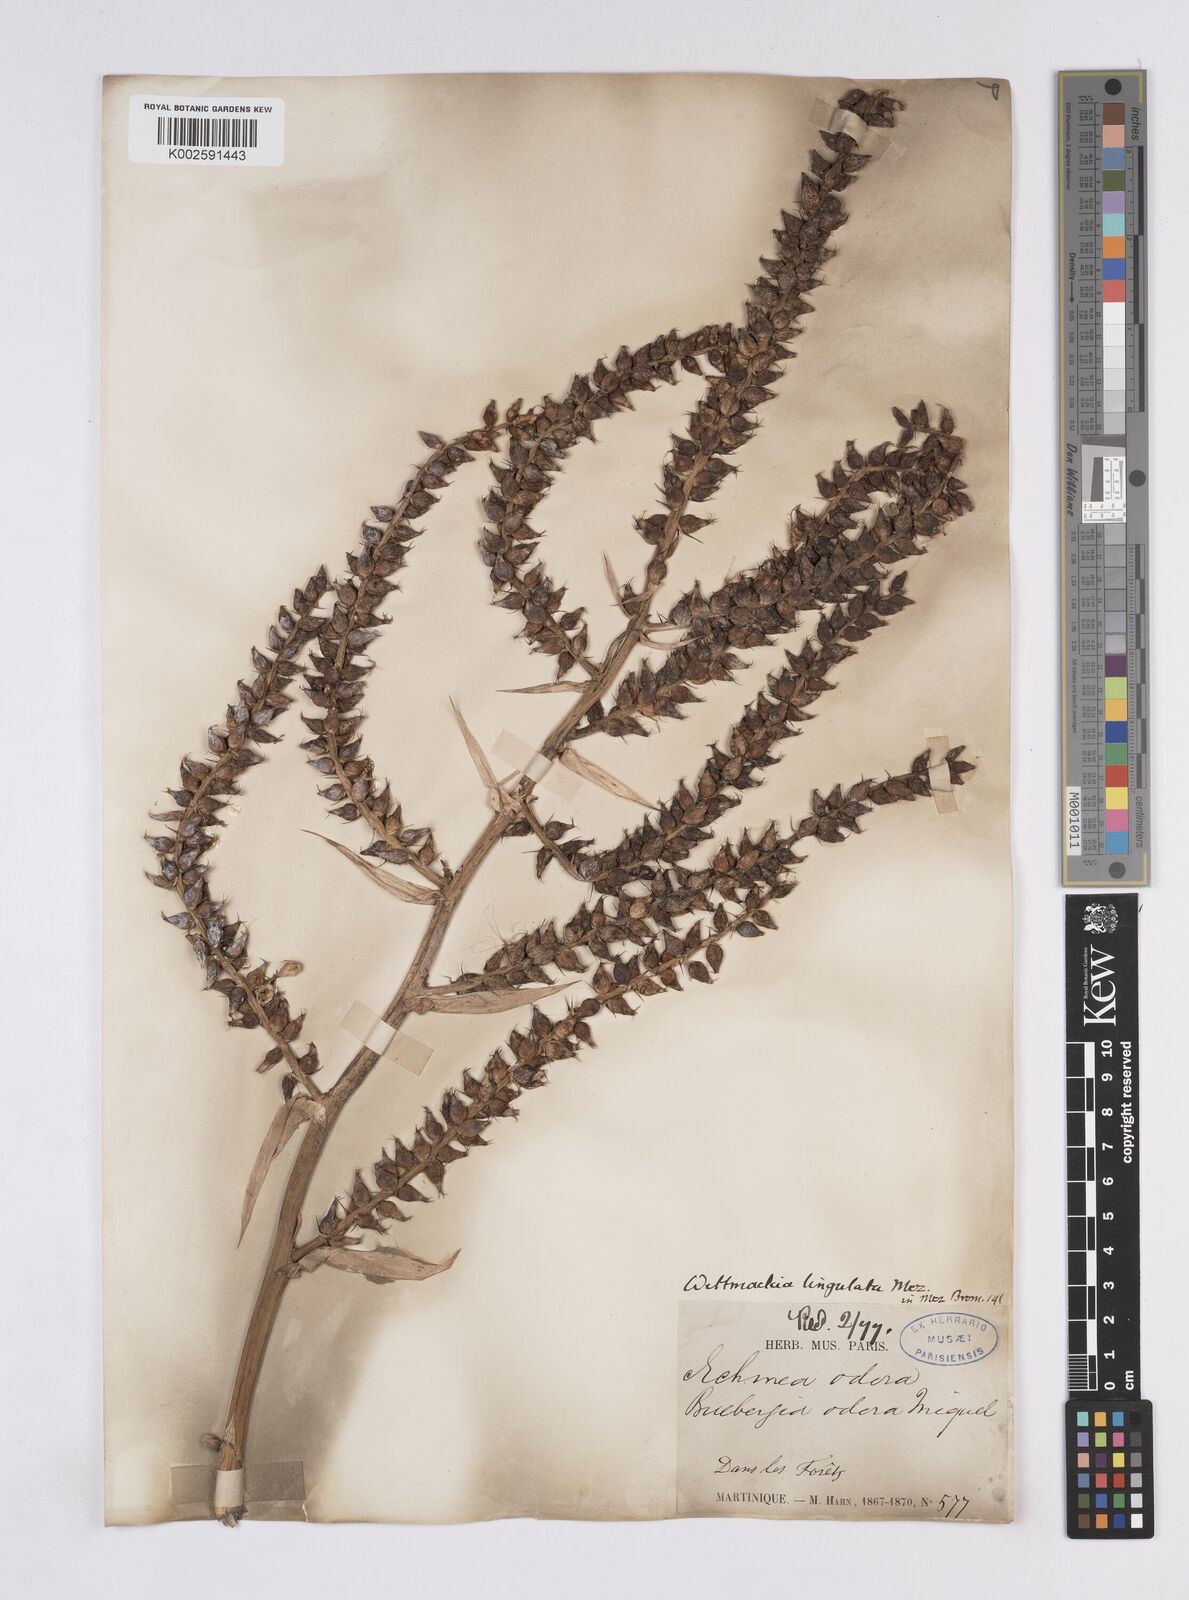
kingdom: Plantae
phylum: Tracheophyta
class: Liliopsida
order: Poales
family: Bromeliaceae
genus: Wittmackia
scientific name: Wittmackia lingulata
